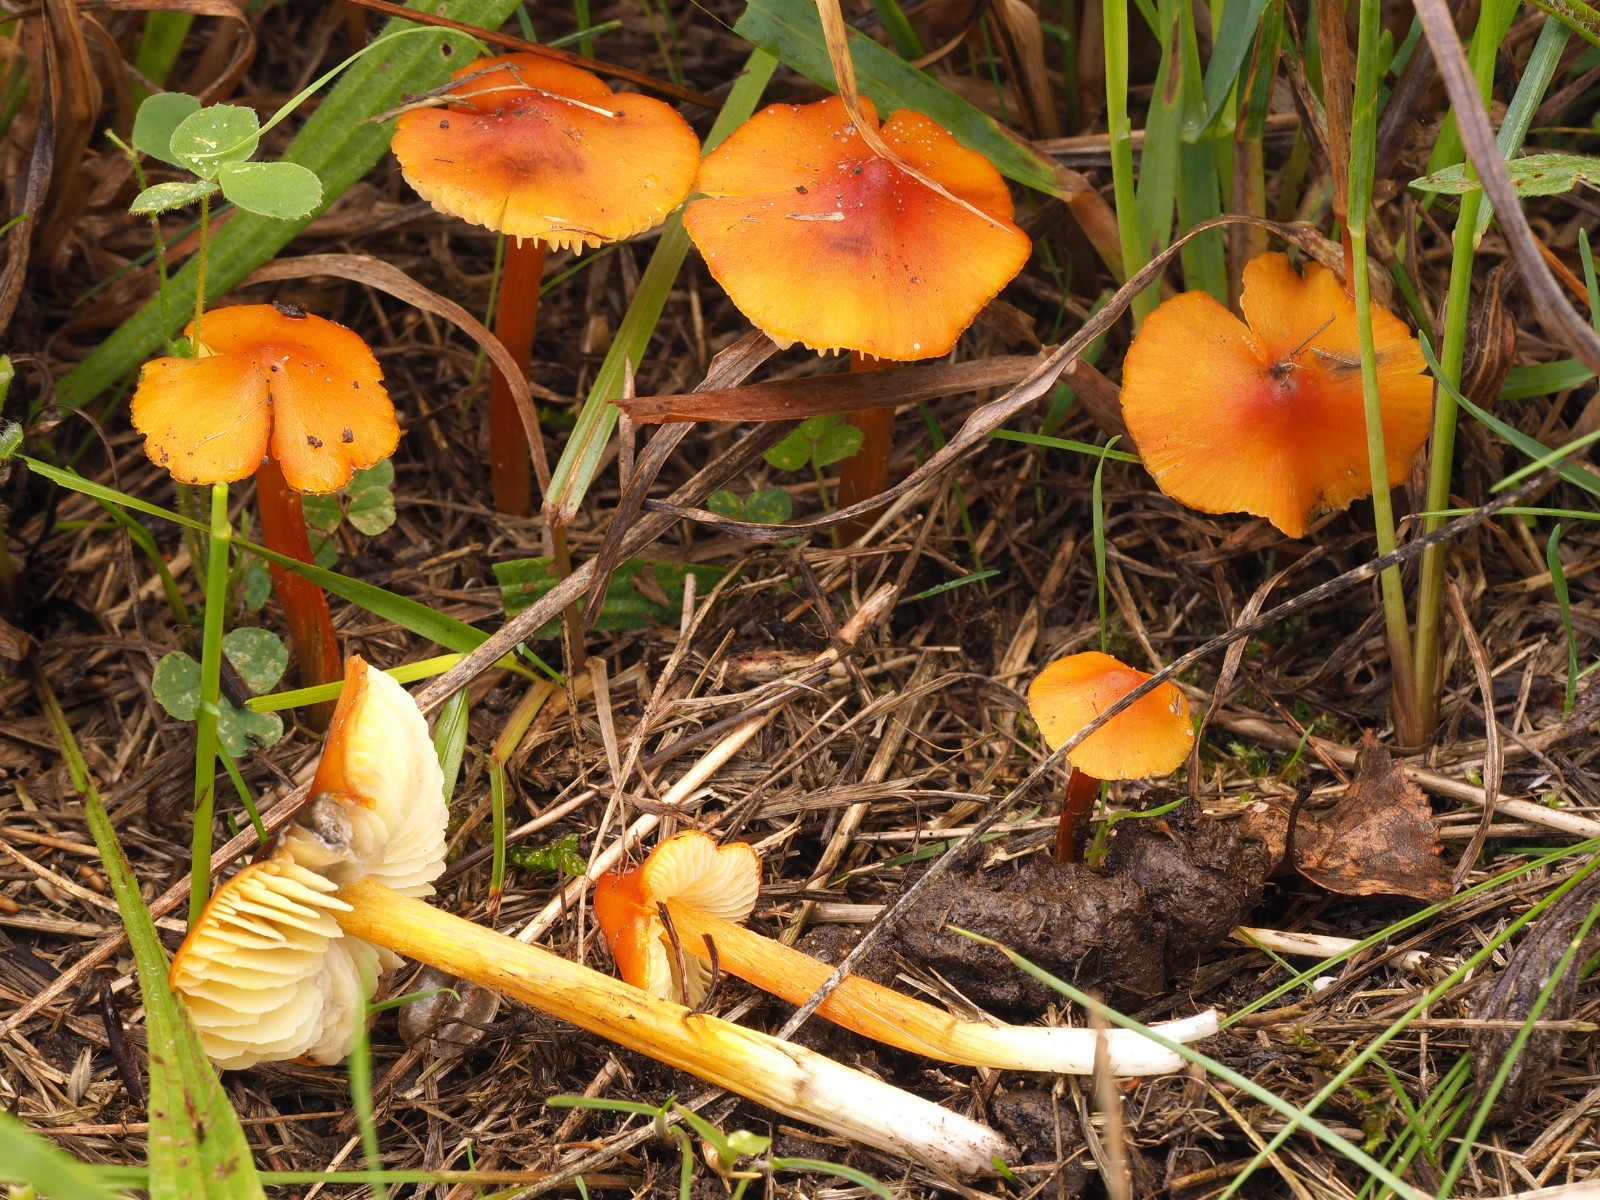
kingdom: Fungi
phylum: Basidiomycota
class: Agaricomycetes
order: Agaricales
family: Hygrophoraceae
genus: Hygrocybe
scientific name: Hygrocybe conica
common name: kegle-vokshat
